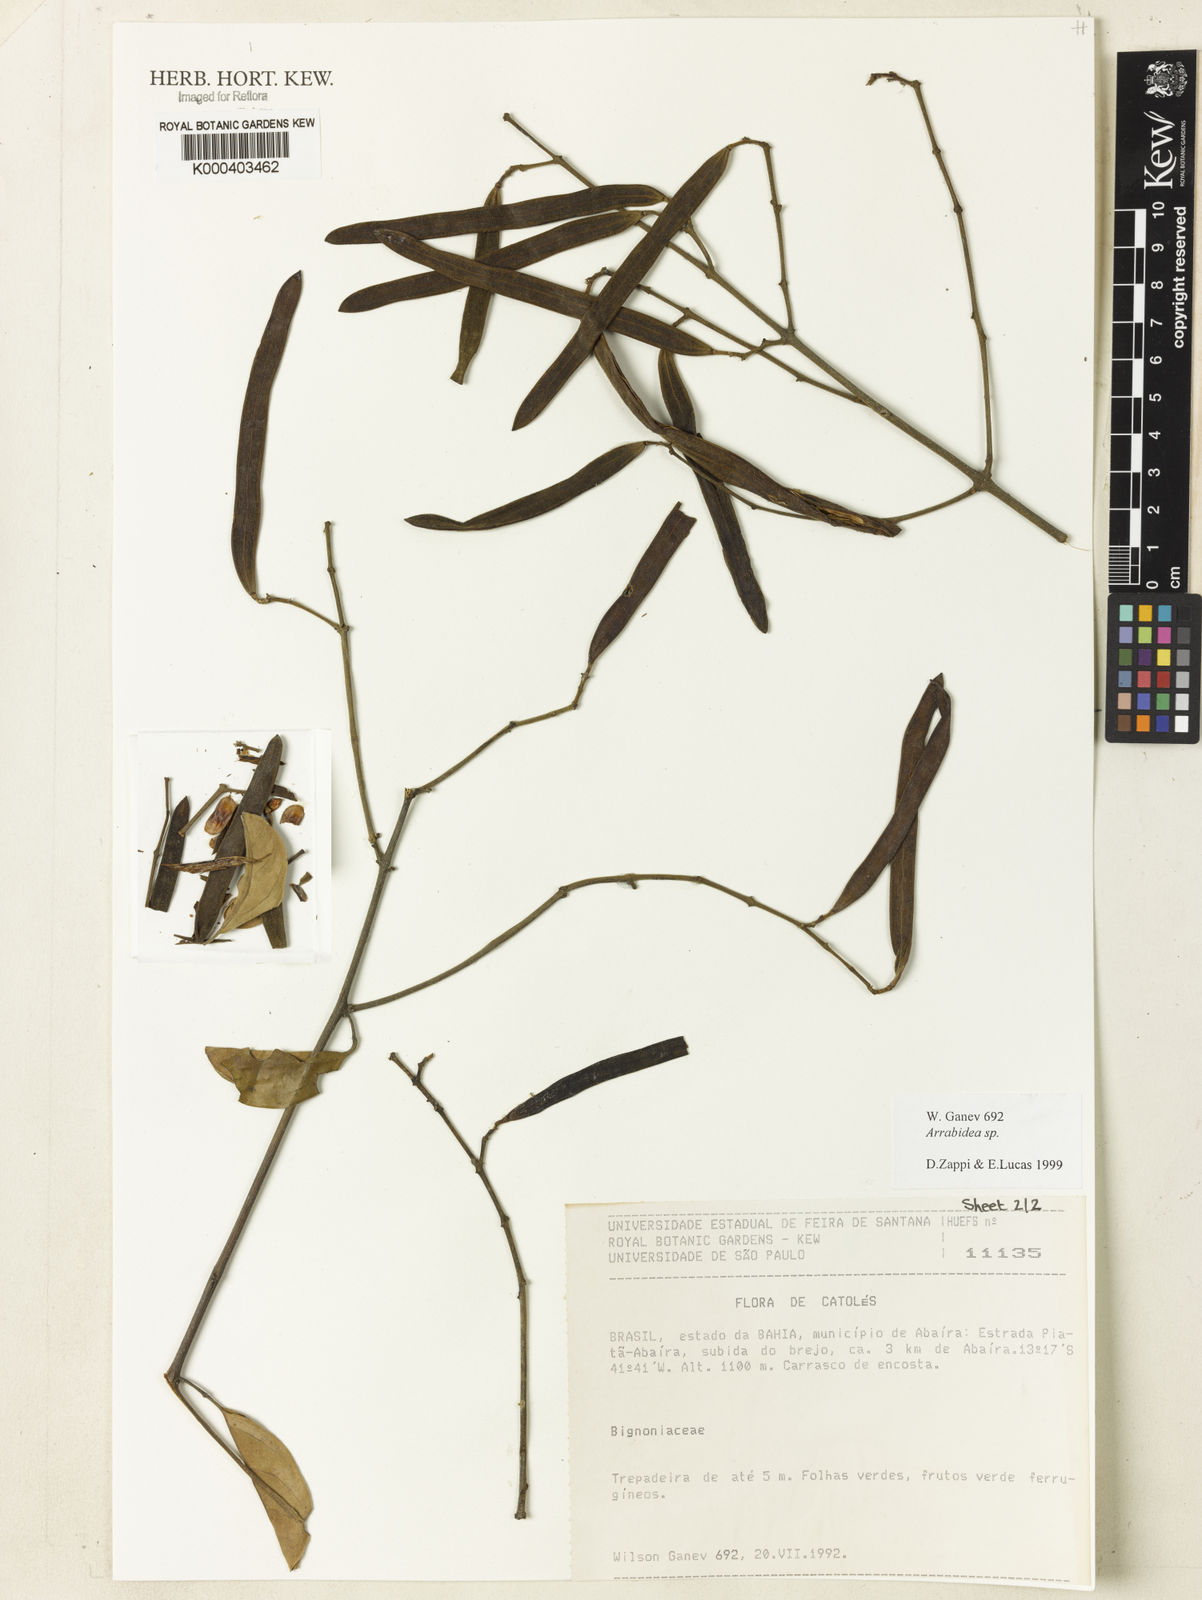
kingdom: Plantae
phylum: Tracheophyta
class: Magnoliopsida
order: Rosales
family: Rhamnaceae
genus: Arrabidaea
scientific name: Arrabidaea
